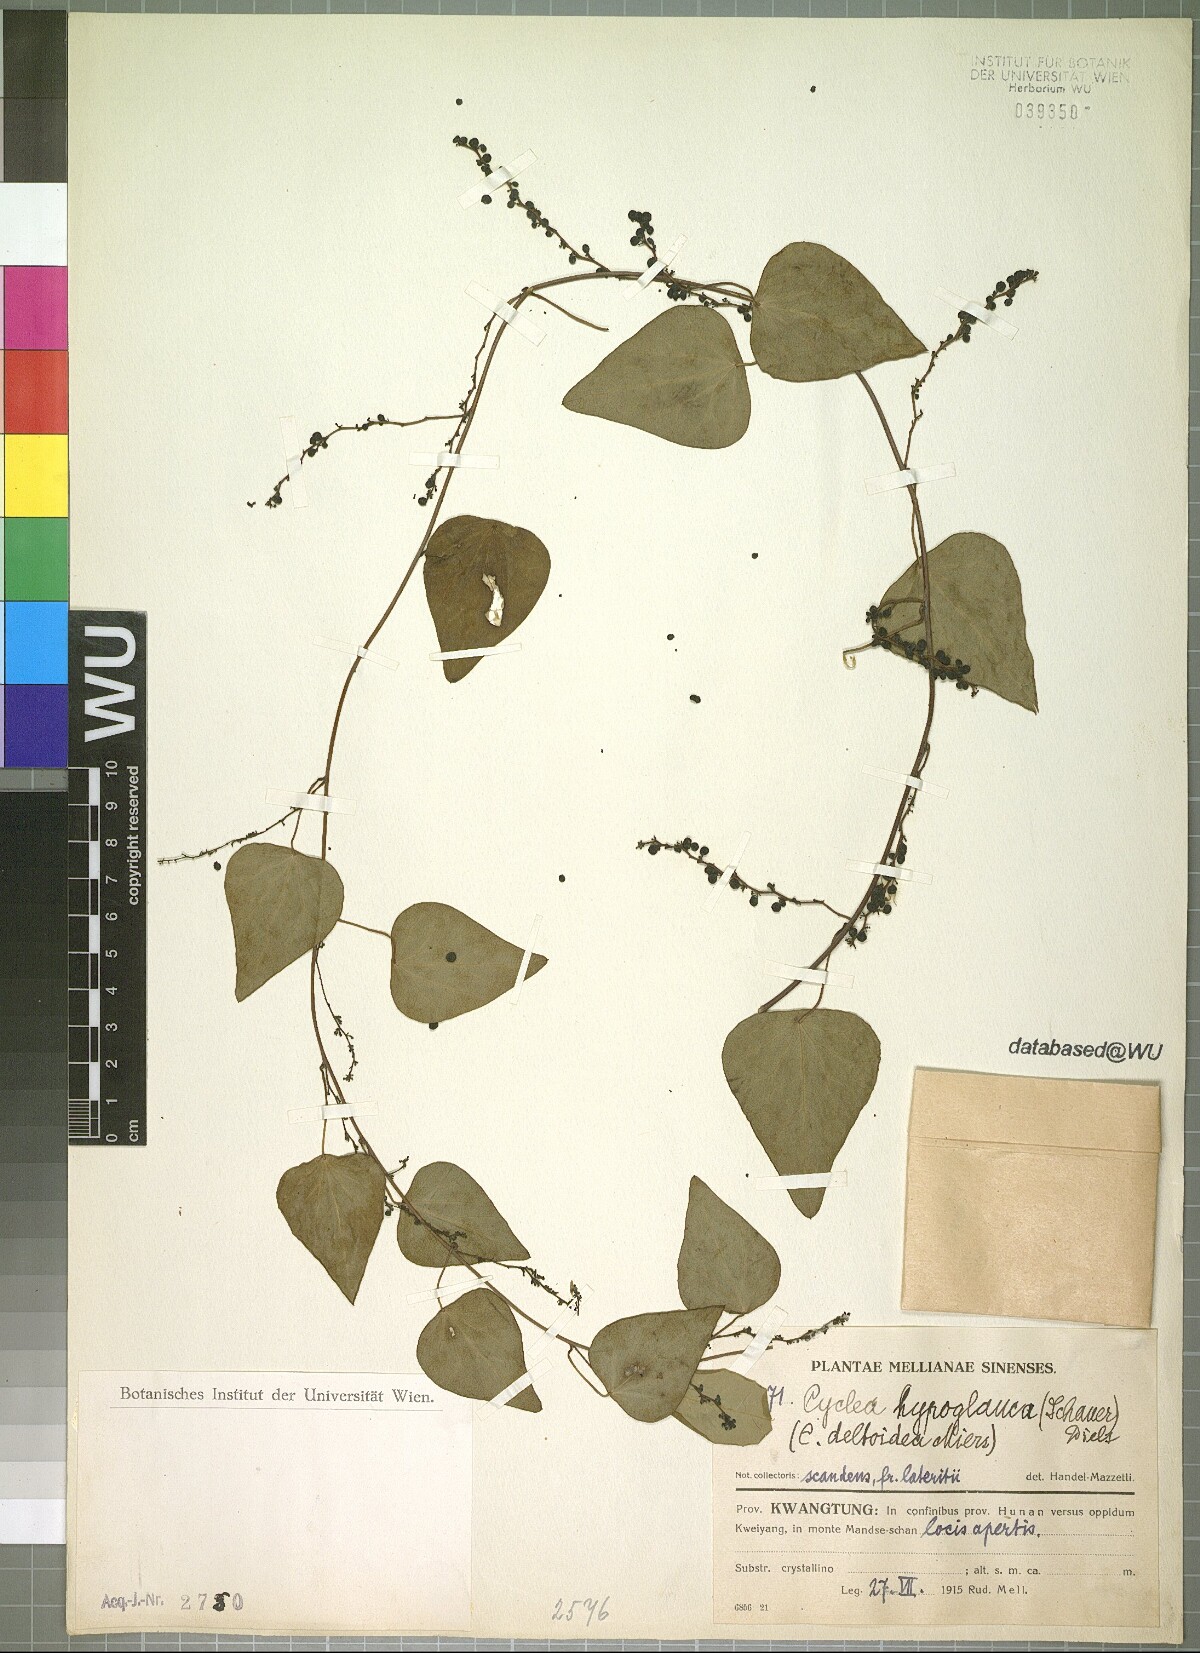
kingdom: Plantae
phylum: Tracheophyta
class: Magnoliopsida
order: Ranunculales
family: Menispermaceae
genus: Cyclea
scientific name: Cyclea hypoglauca
